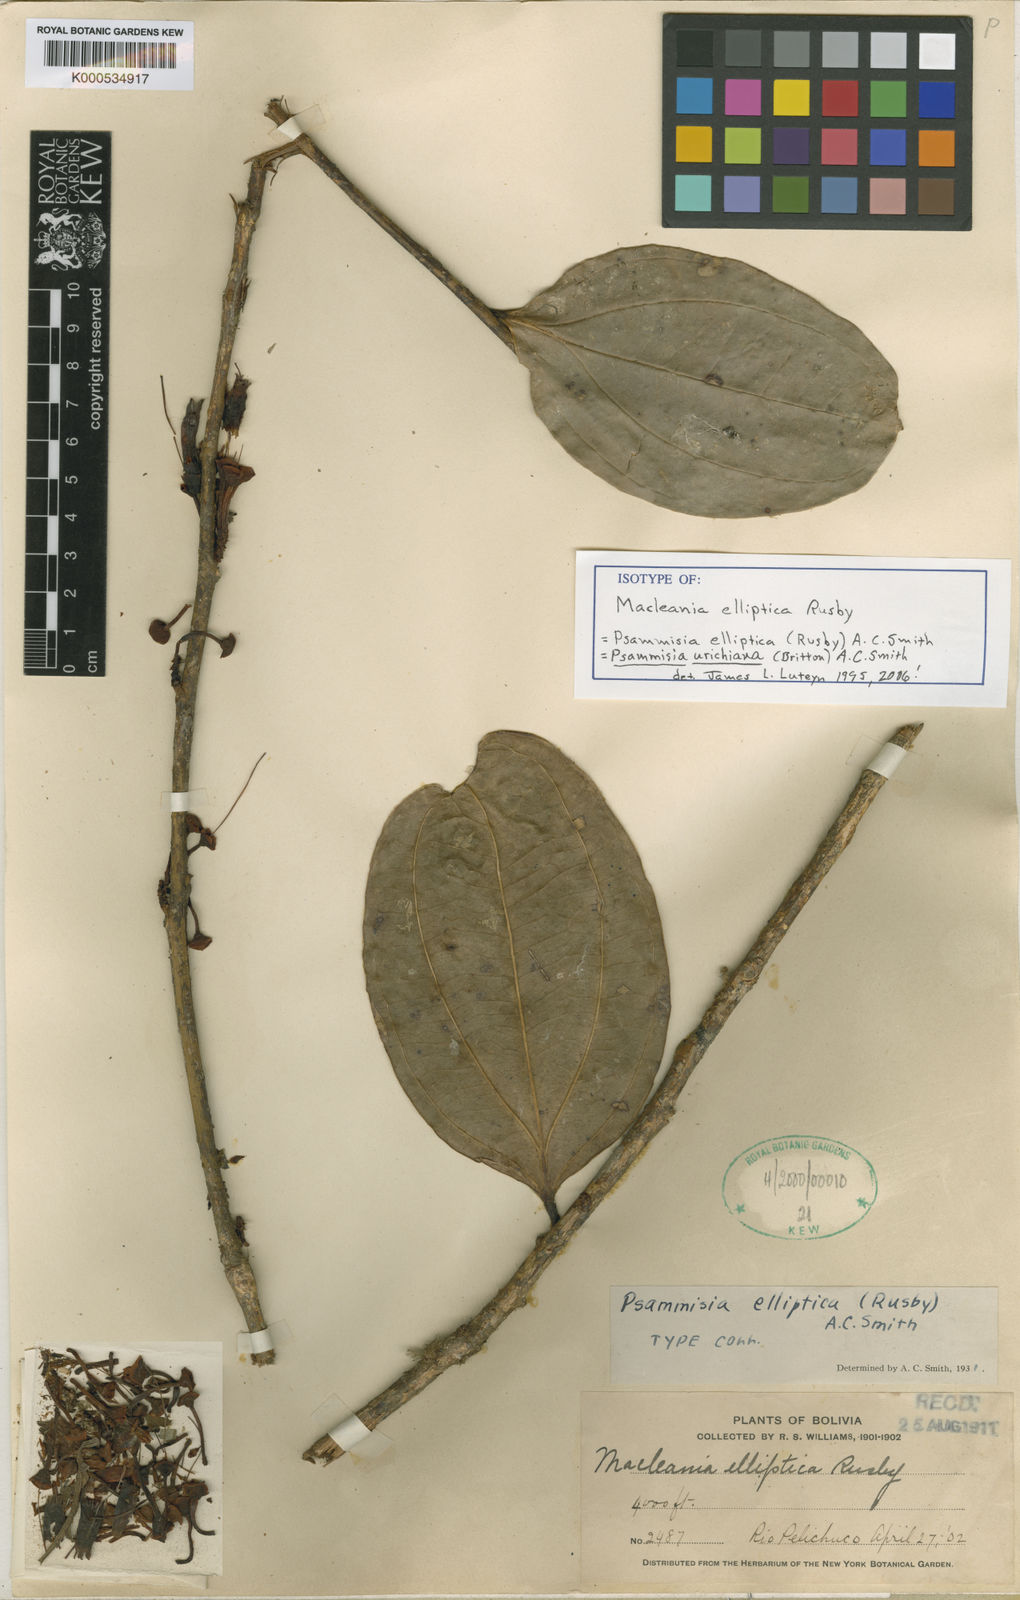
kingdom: Plantae
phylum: Tracheophyta
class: Magnoliopsida
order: Ericales
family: Ericaceae
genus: Psammisia
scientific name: Psammisia urichiana
